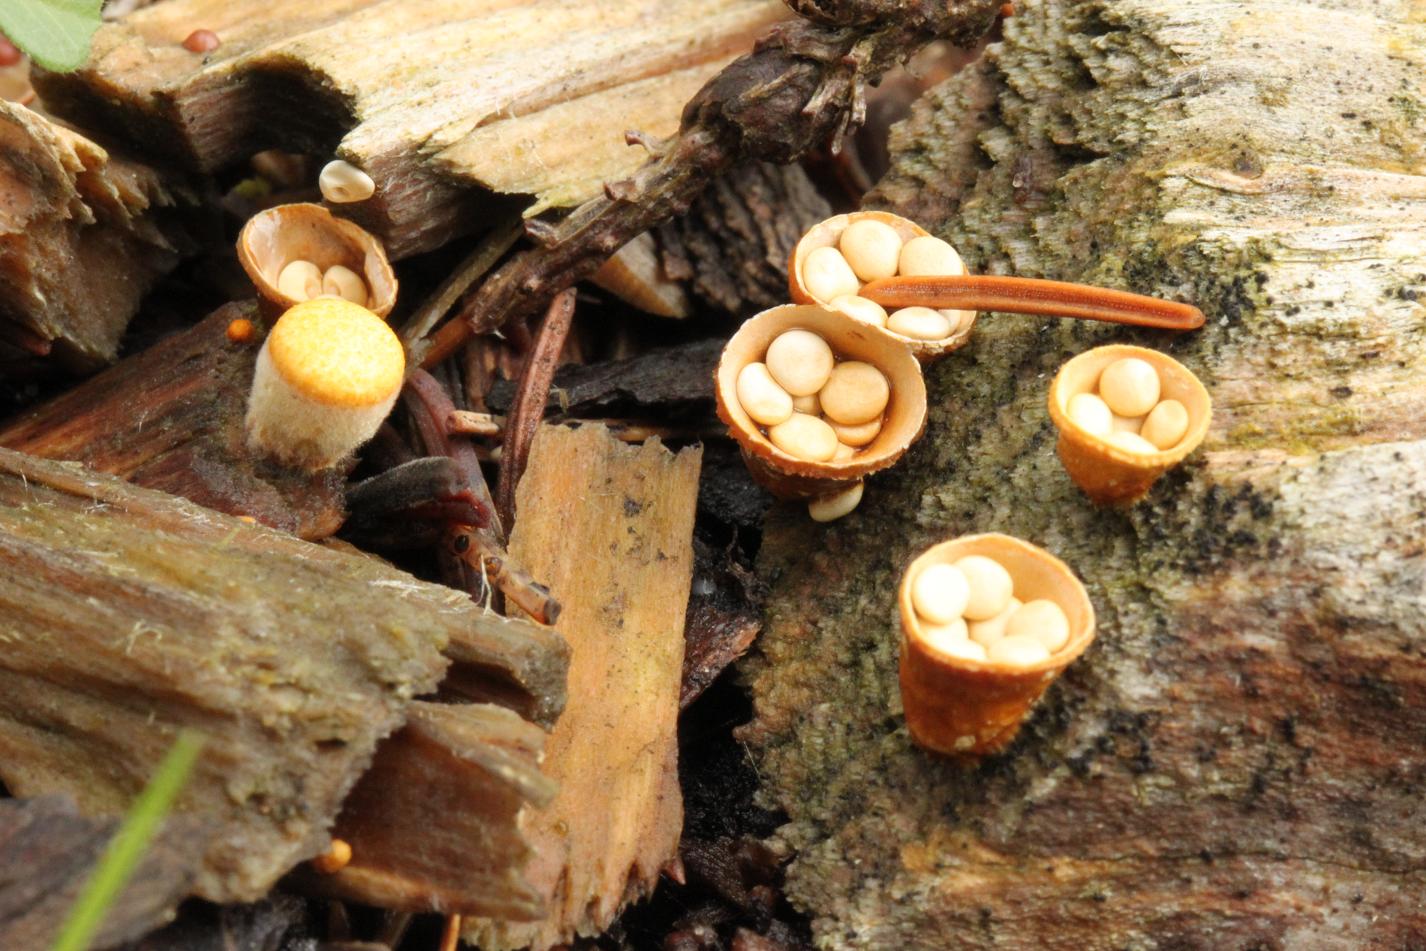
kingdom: Fungi
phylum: Basidiomycota
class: Agaricomycetes
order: Agaricales
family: Nidulariaceae
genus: Crucibulum
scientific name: Crucibulum crucibuliforme
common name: krukkesvamp
